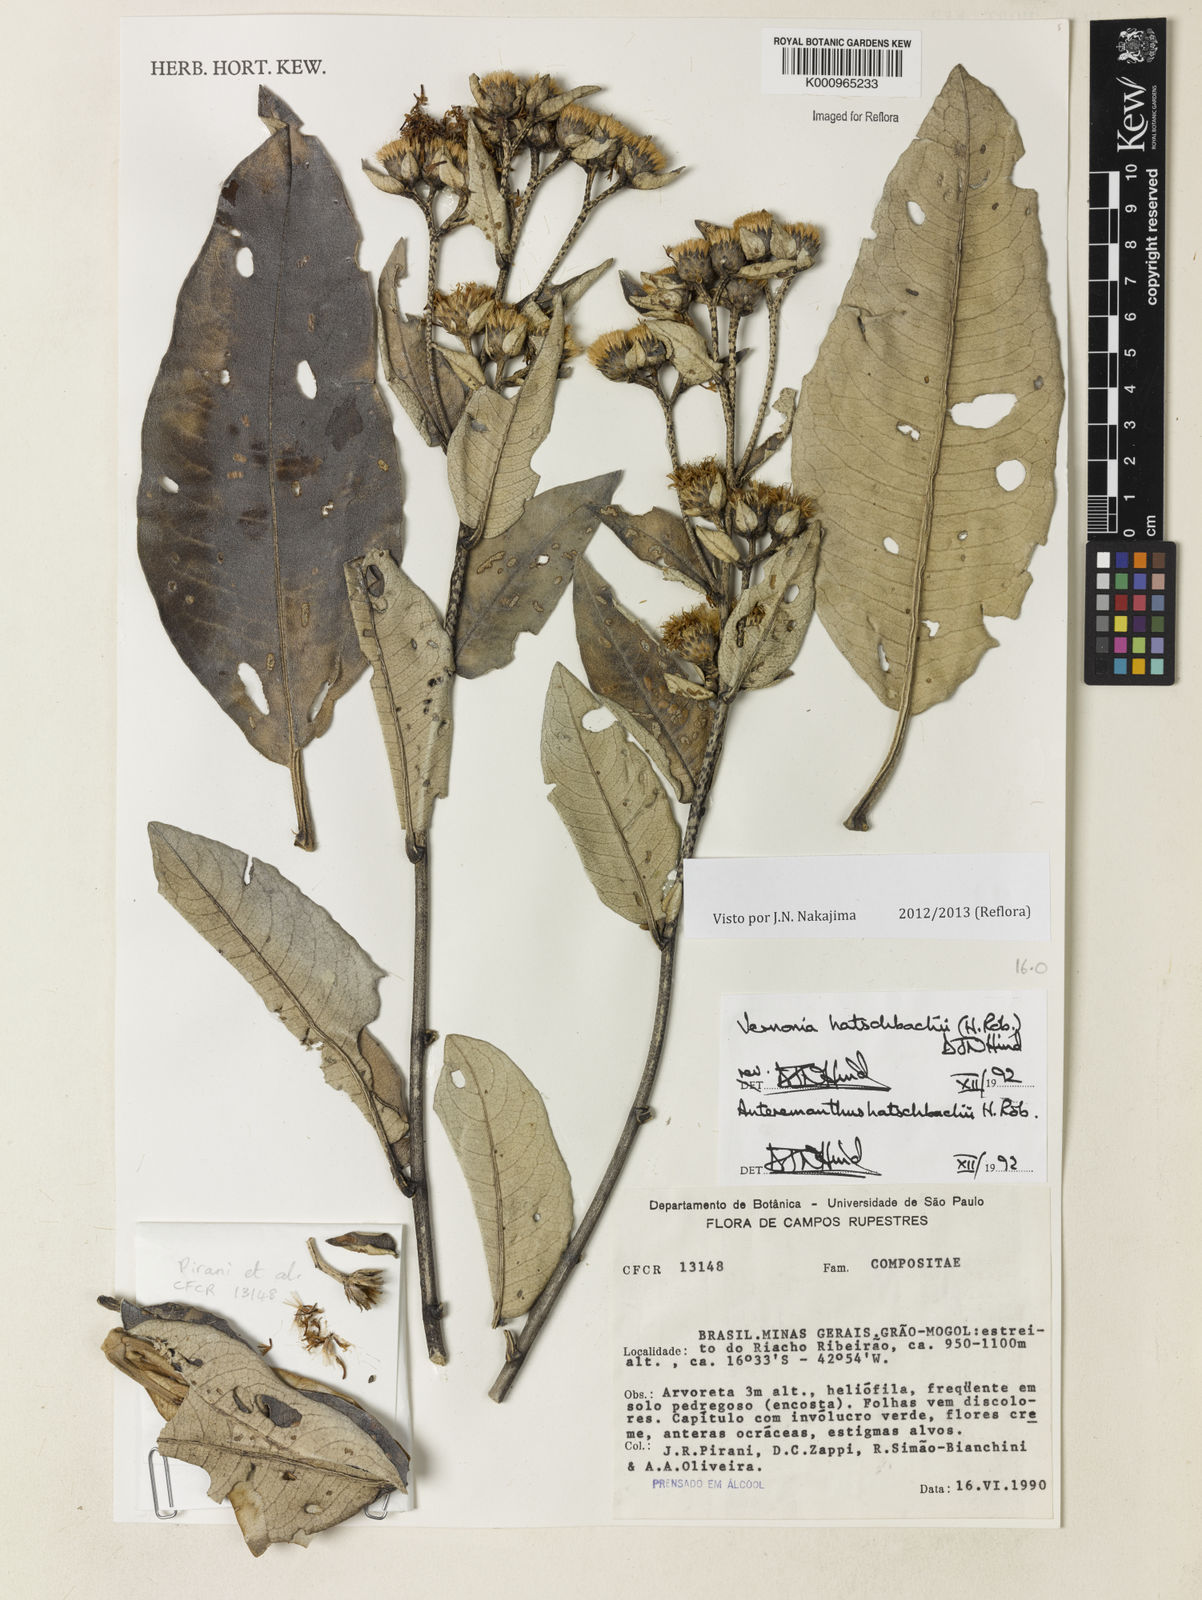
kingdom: Plantae
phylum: Tracheophyta
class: Magnoliopsida
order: Asterales
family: Asteraceae
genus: Anteremanthus
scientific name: Anteremanthus hatschbachii
